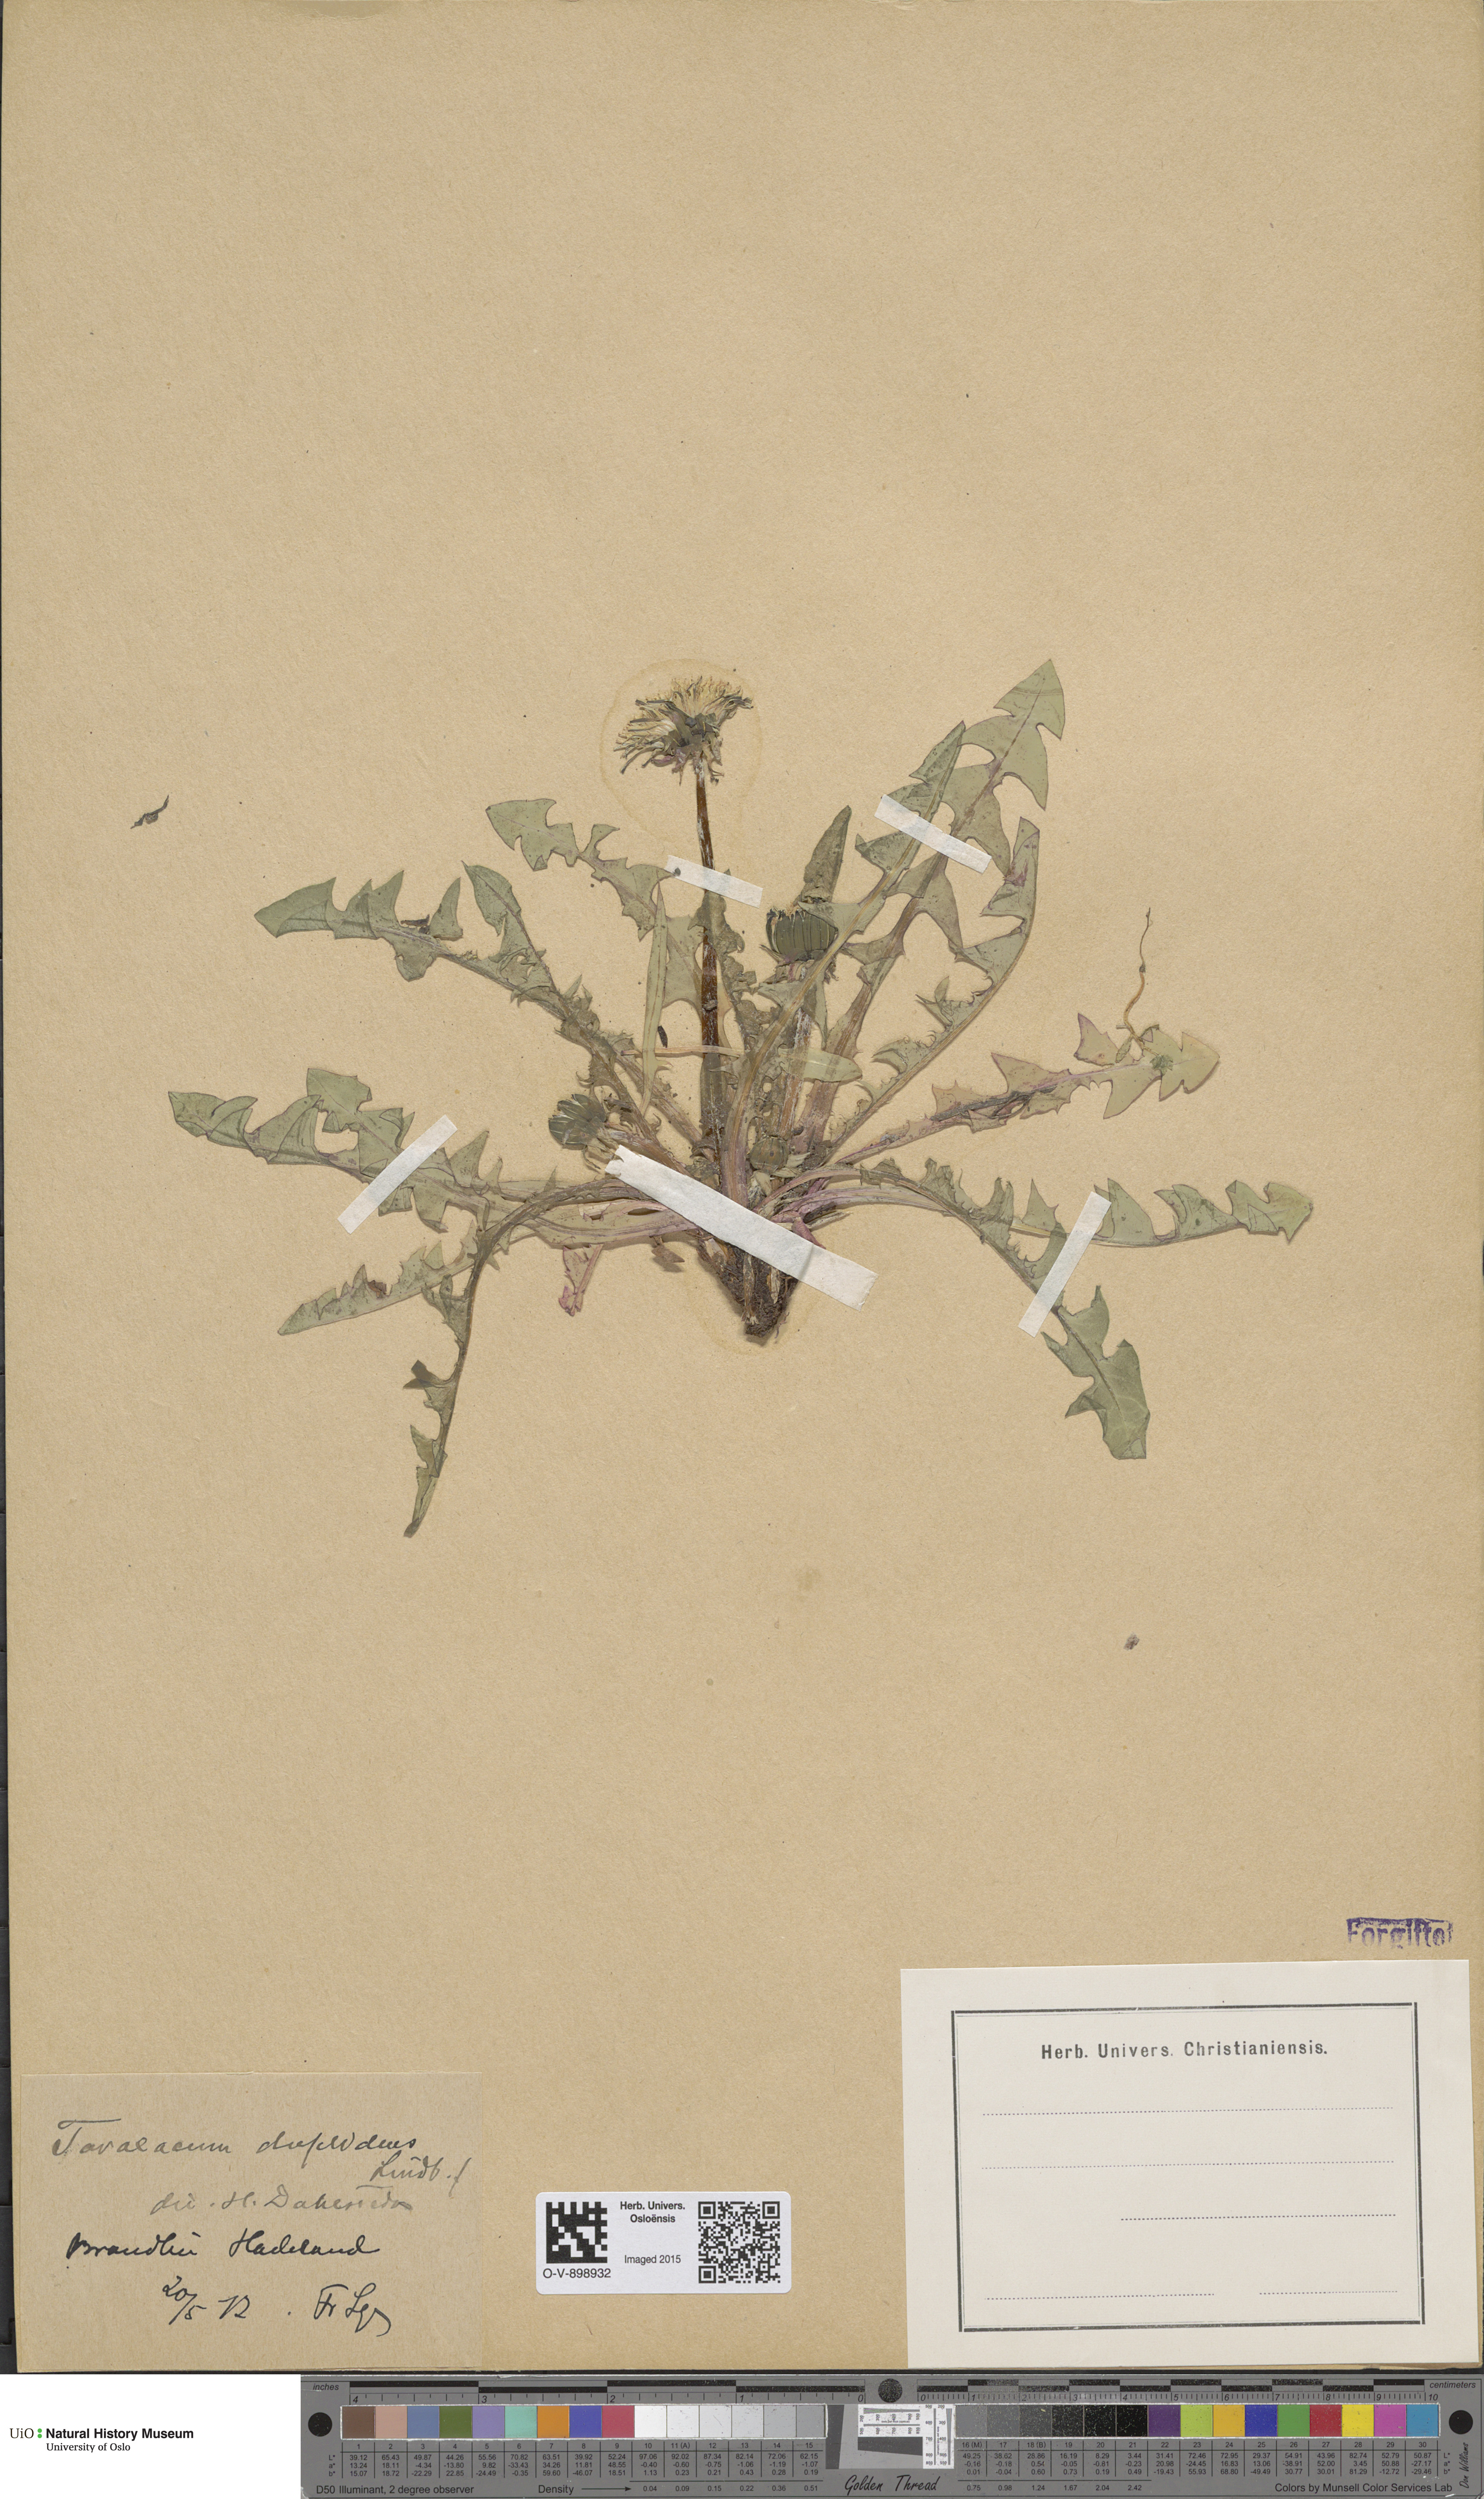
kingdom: Plantae
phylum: Tracheophyta
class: Magnoliopsida
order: Asterales
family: Asteraceae
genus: Taraxacum
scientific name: Taraxacum ostenfeldii
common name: Ostenfeld's dandelion
